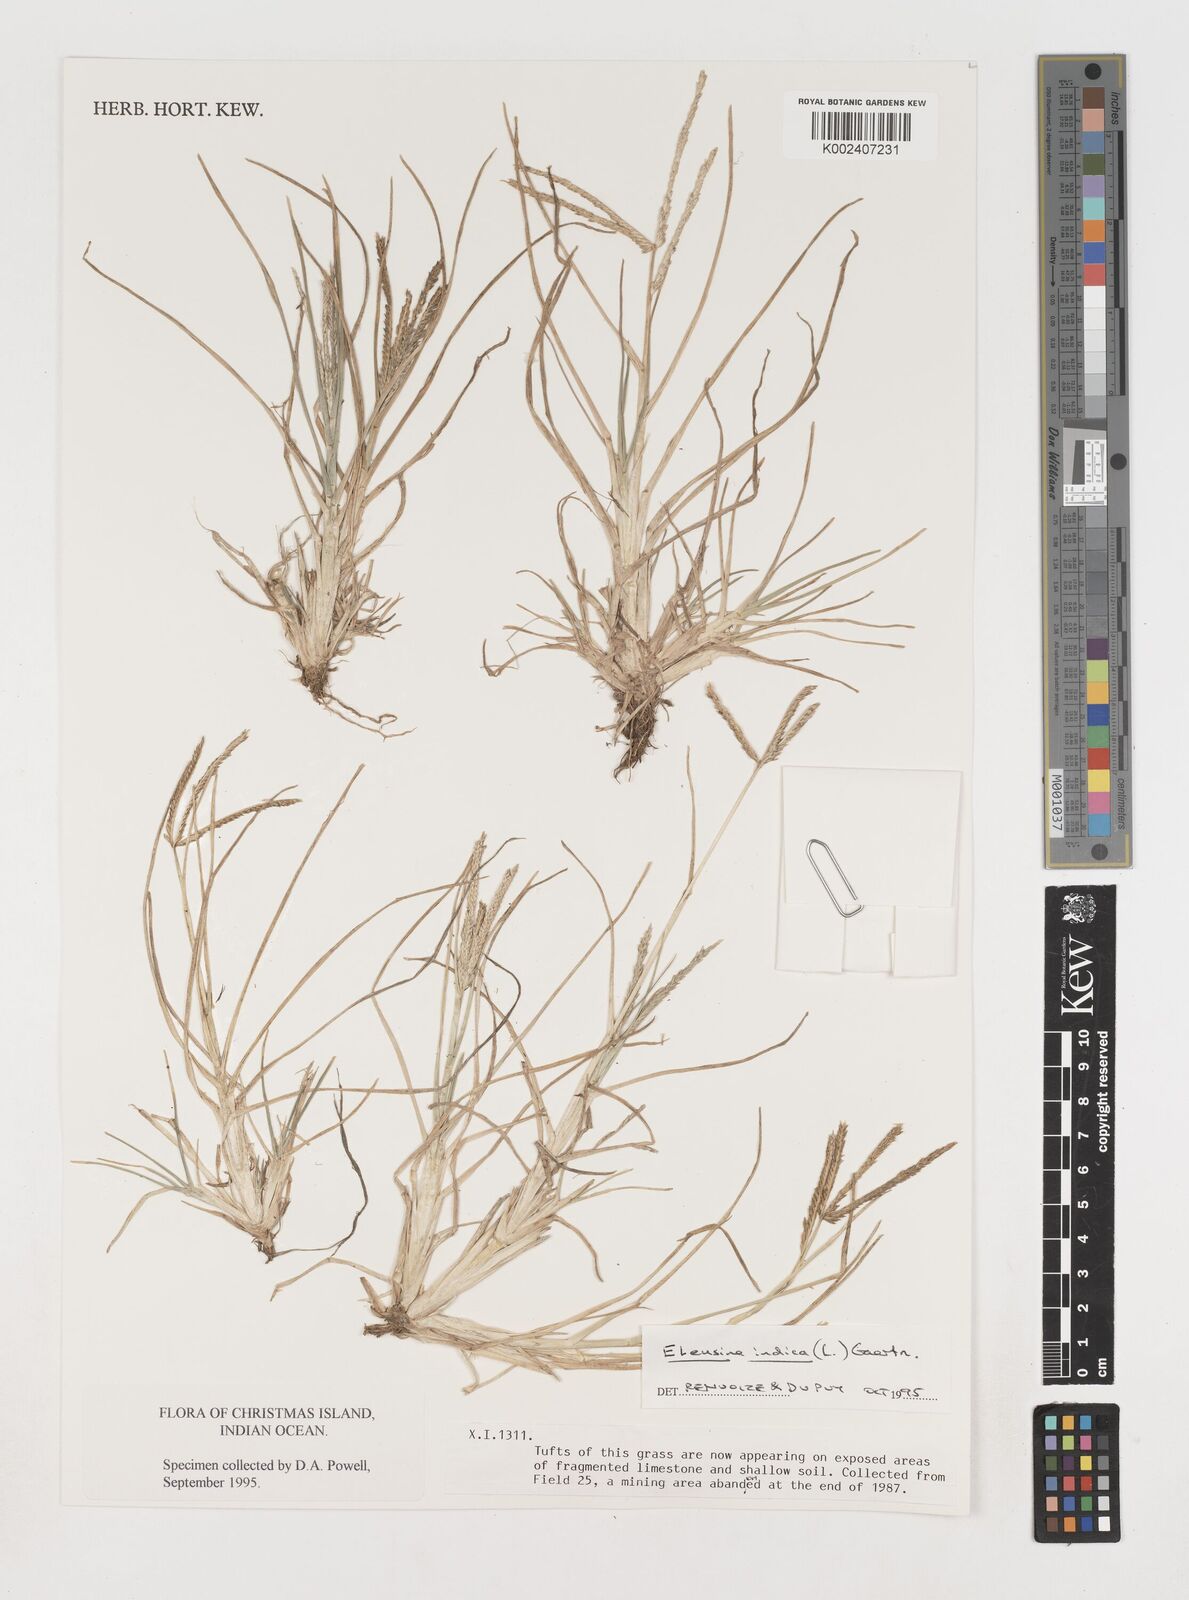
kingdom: Plantae
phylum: Tracheophyta
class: Liliopsida
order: Poales
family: Poaceae
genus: Eleusine
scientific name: Eleusine indica
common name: Yard-grass
